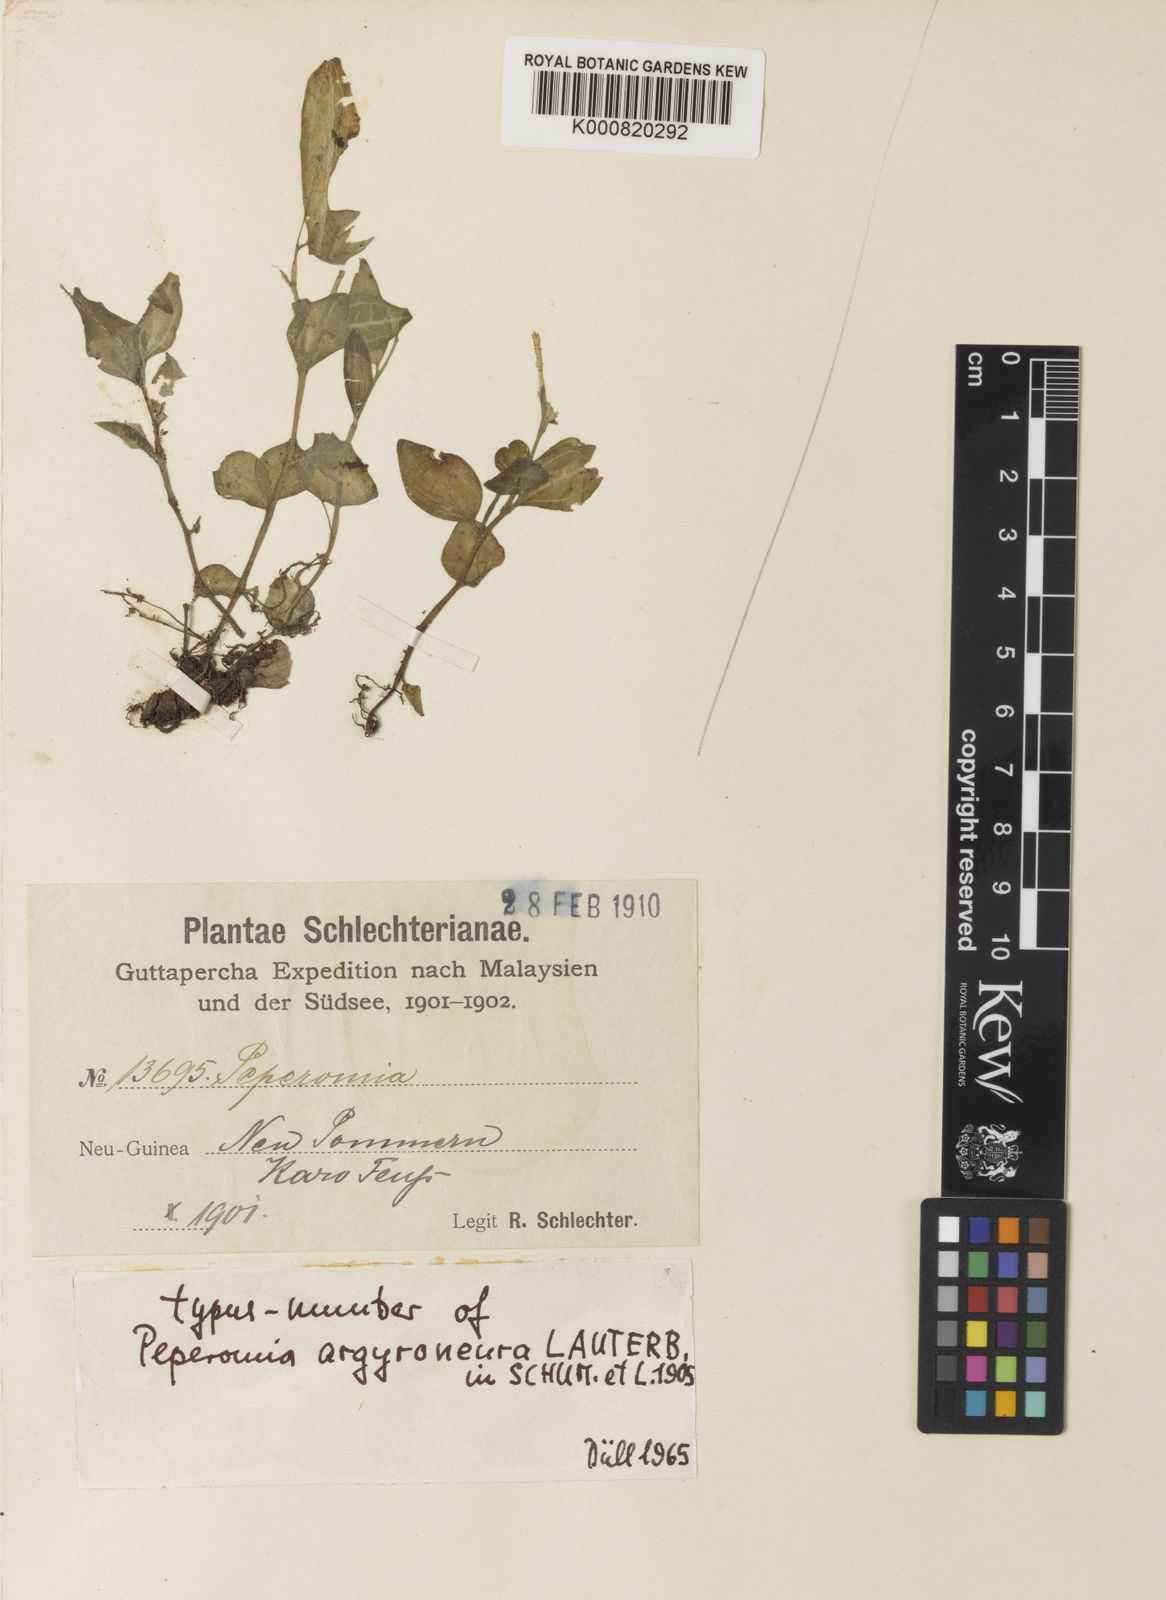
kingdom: Plantae
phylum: Tracheophyta
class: Magnoliopsida
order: Piperales
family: Piperaceae
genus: Peperomia
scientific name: Peperomia argyroneura
